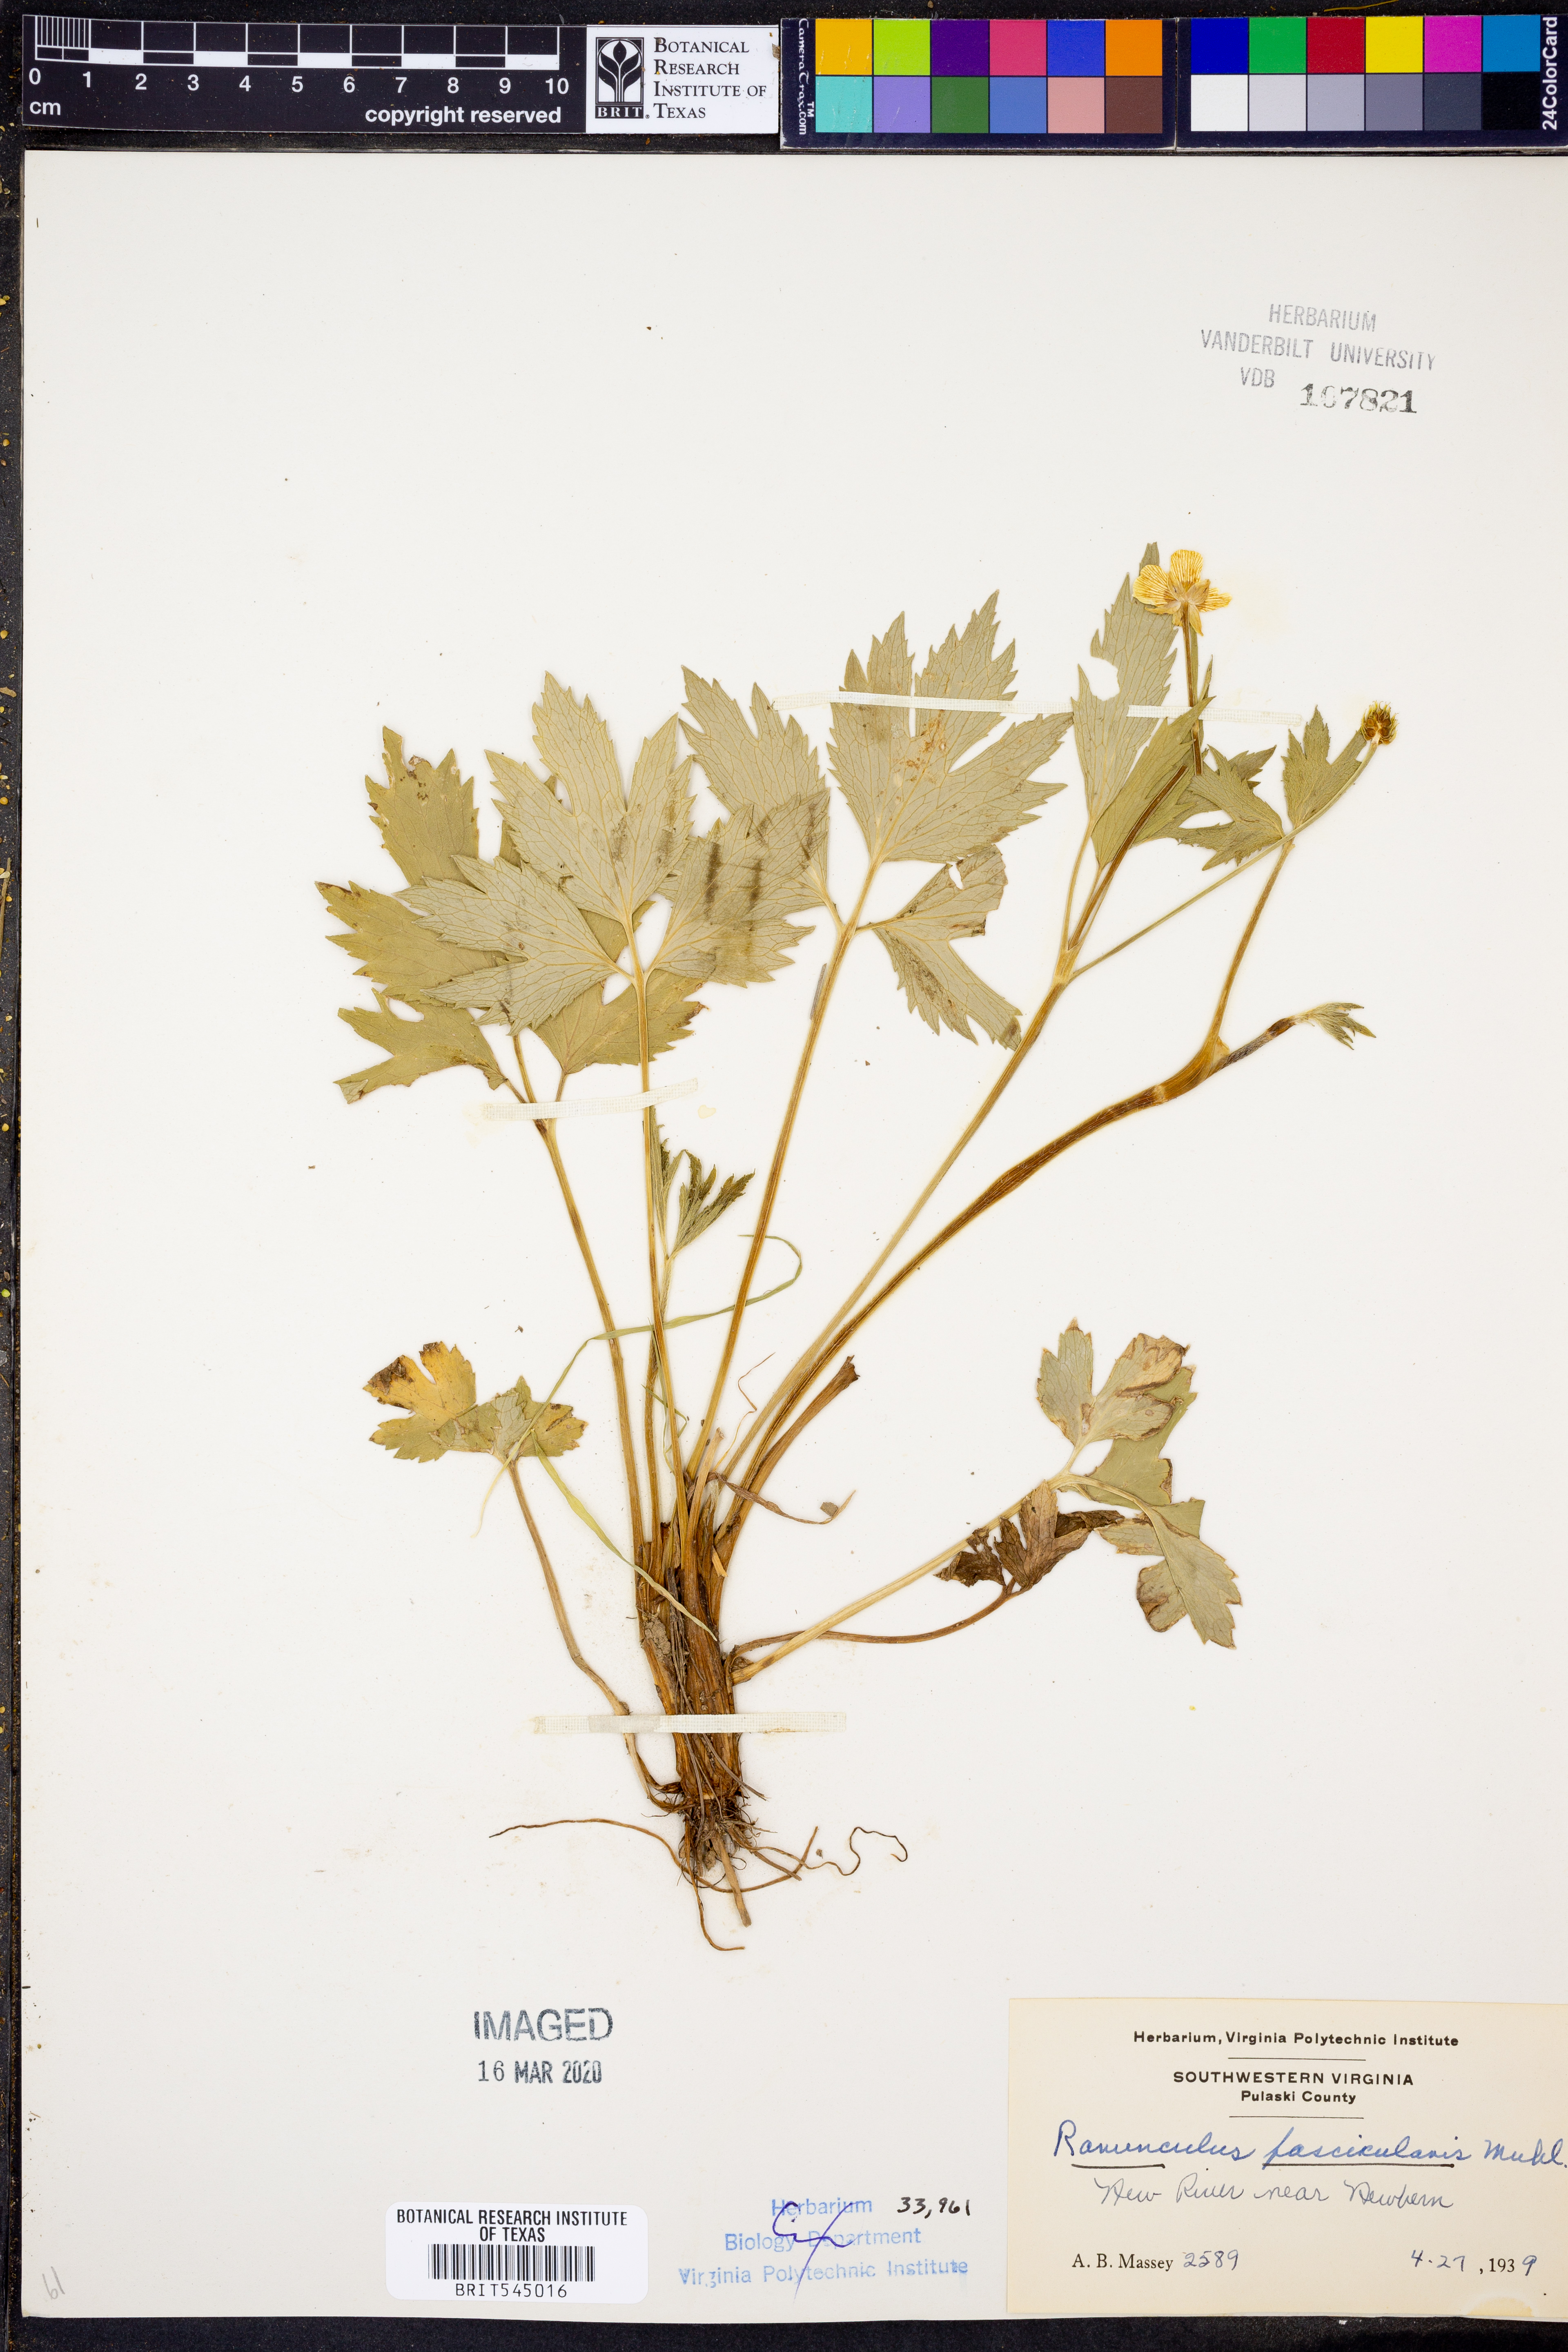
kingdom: Plantae
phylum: Tracheophyta
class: Magnoliopsida
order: Ranunculales
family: Ranunculaceae
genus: Ranunculus
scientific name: Ranunculus fascicularis
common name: Early buttercup
